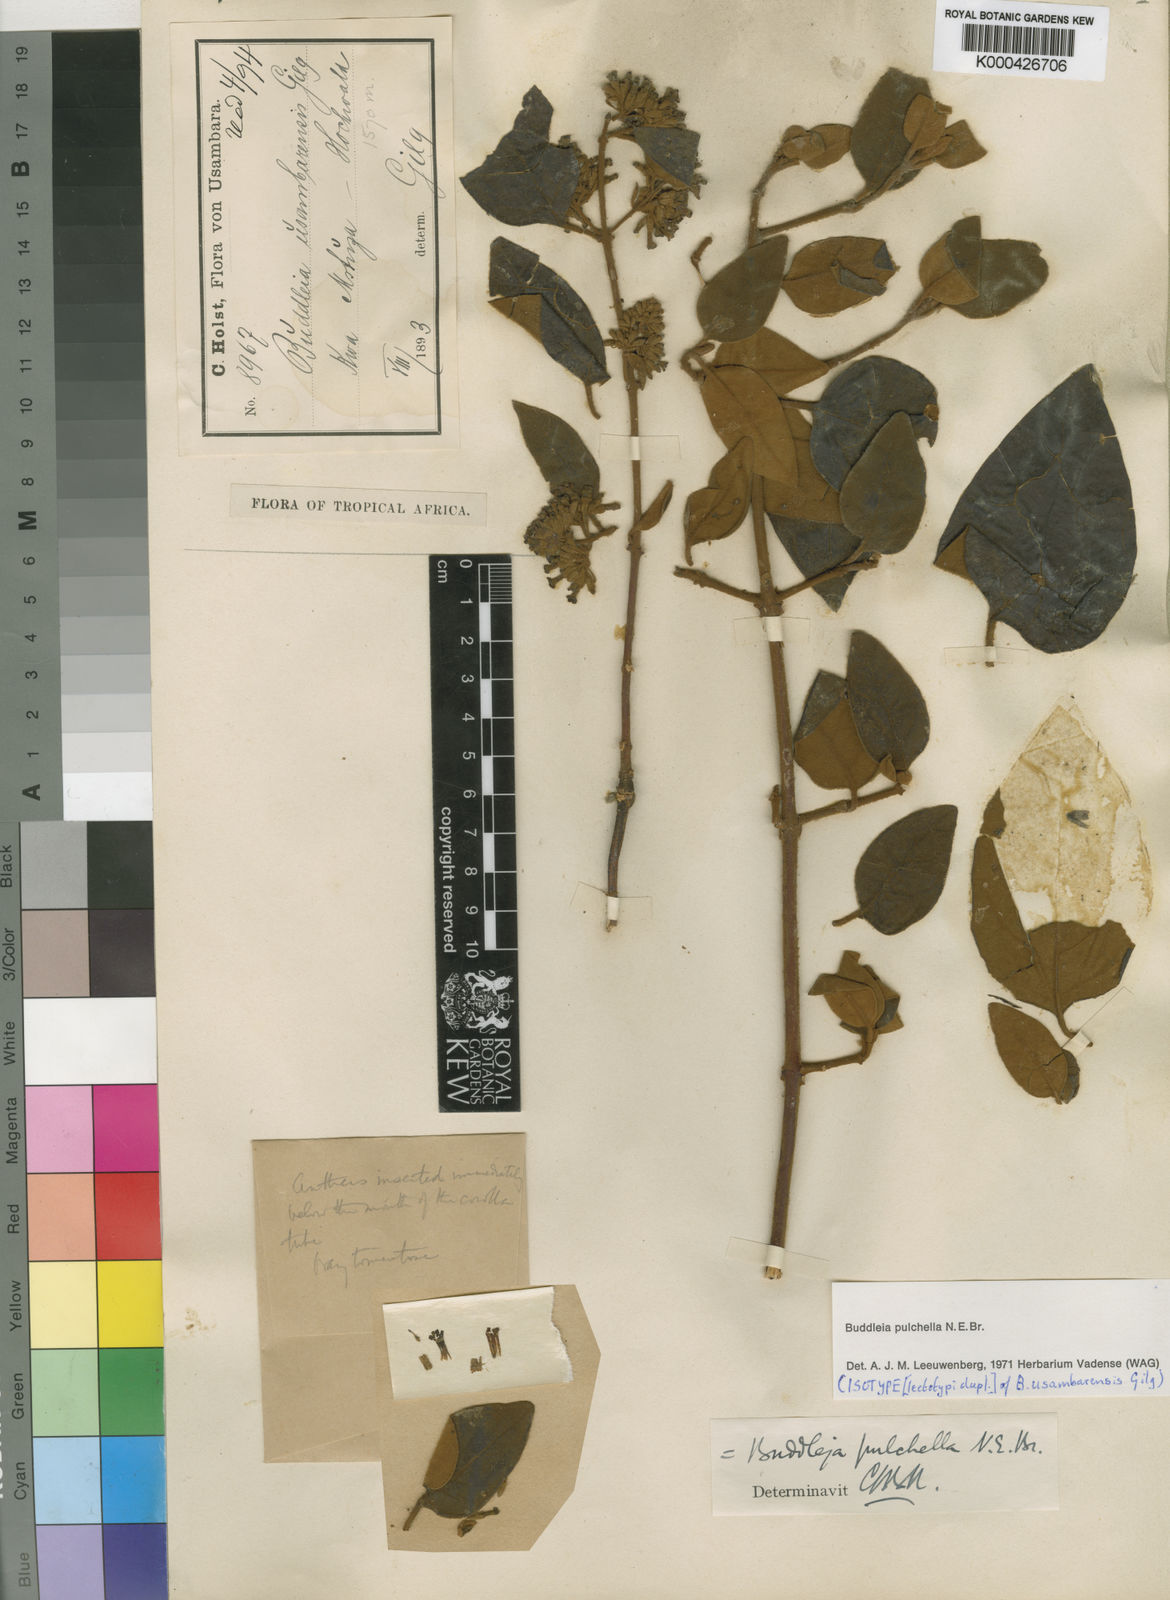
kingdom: Plantae
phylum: Tracheophyta
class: Magnoliopsida
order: Lamiales
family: Scrophulariaceae
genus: Buddleja
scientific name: Buddleja pulchella
